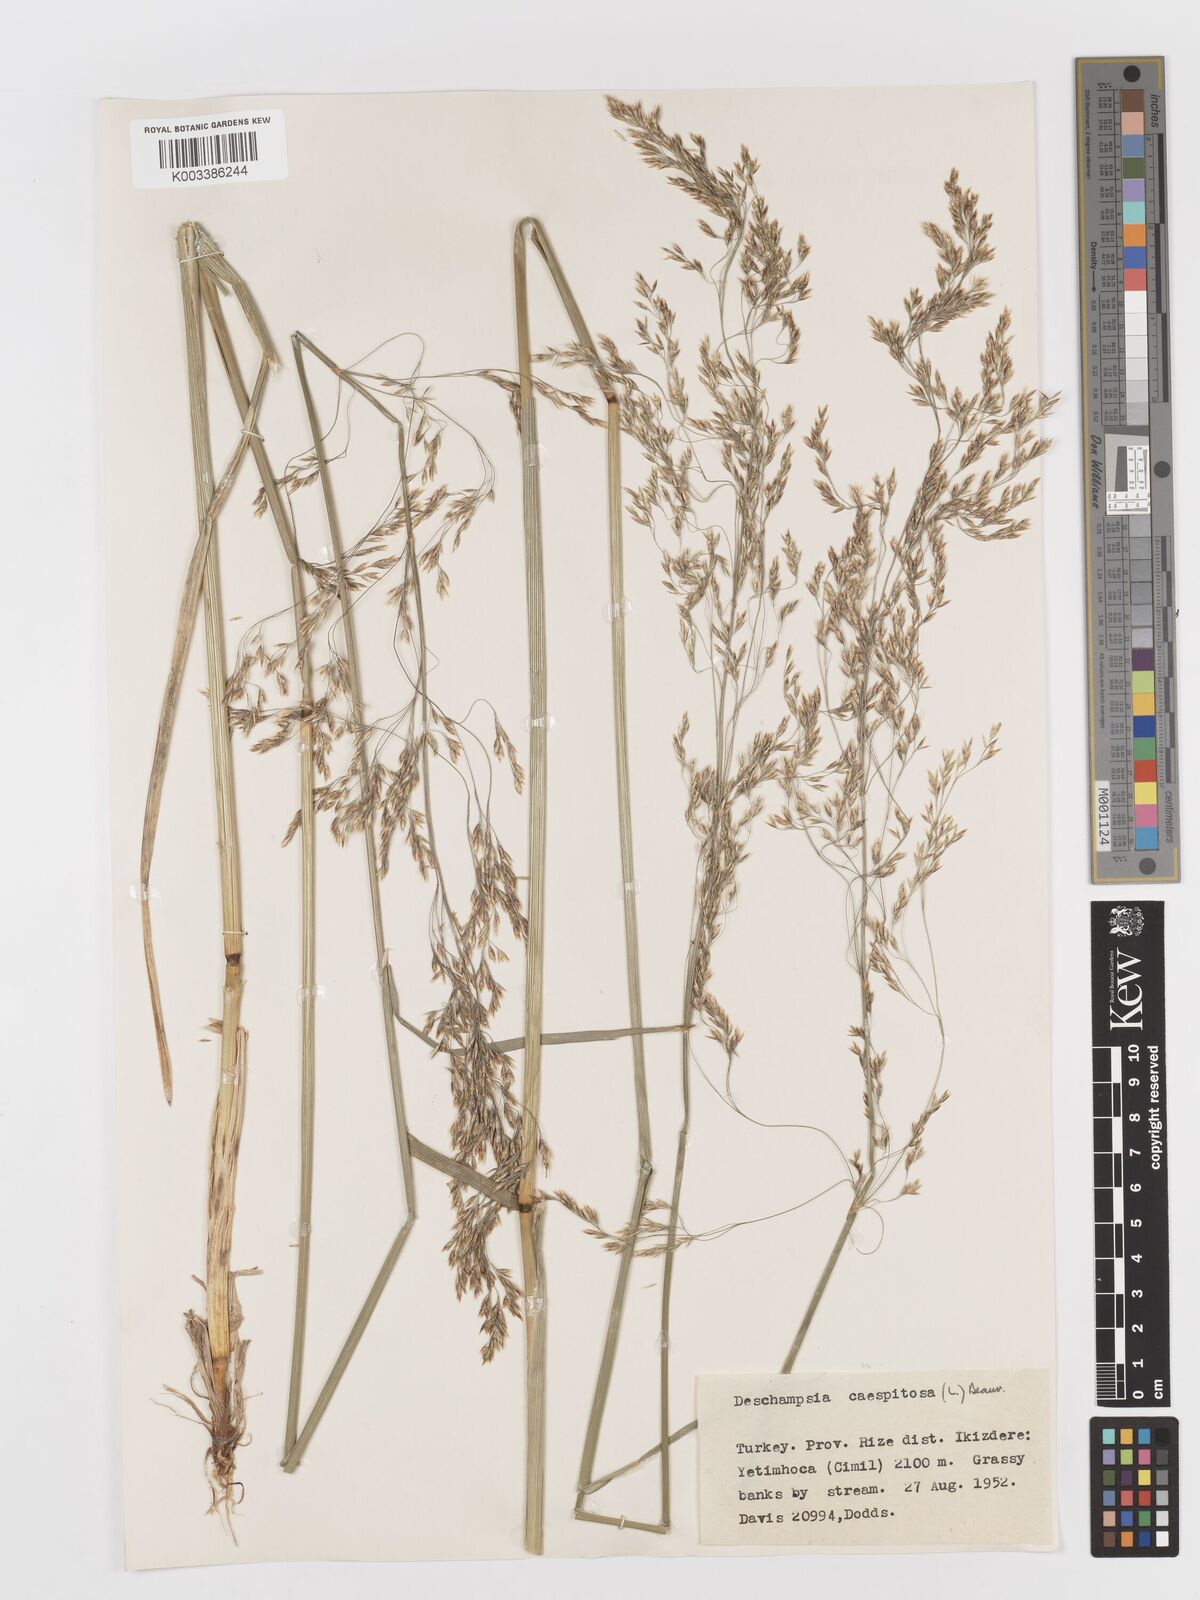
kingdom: Plantae
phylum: Tracheophyta
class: Liliopsida
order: Poales
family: Poaceae
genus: Deschampsia
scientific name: Deschampsia cespitosa
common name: Tufted hair-grass
